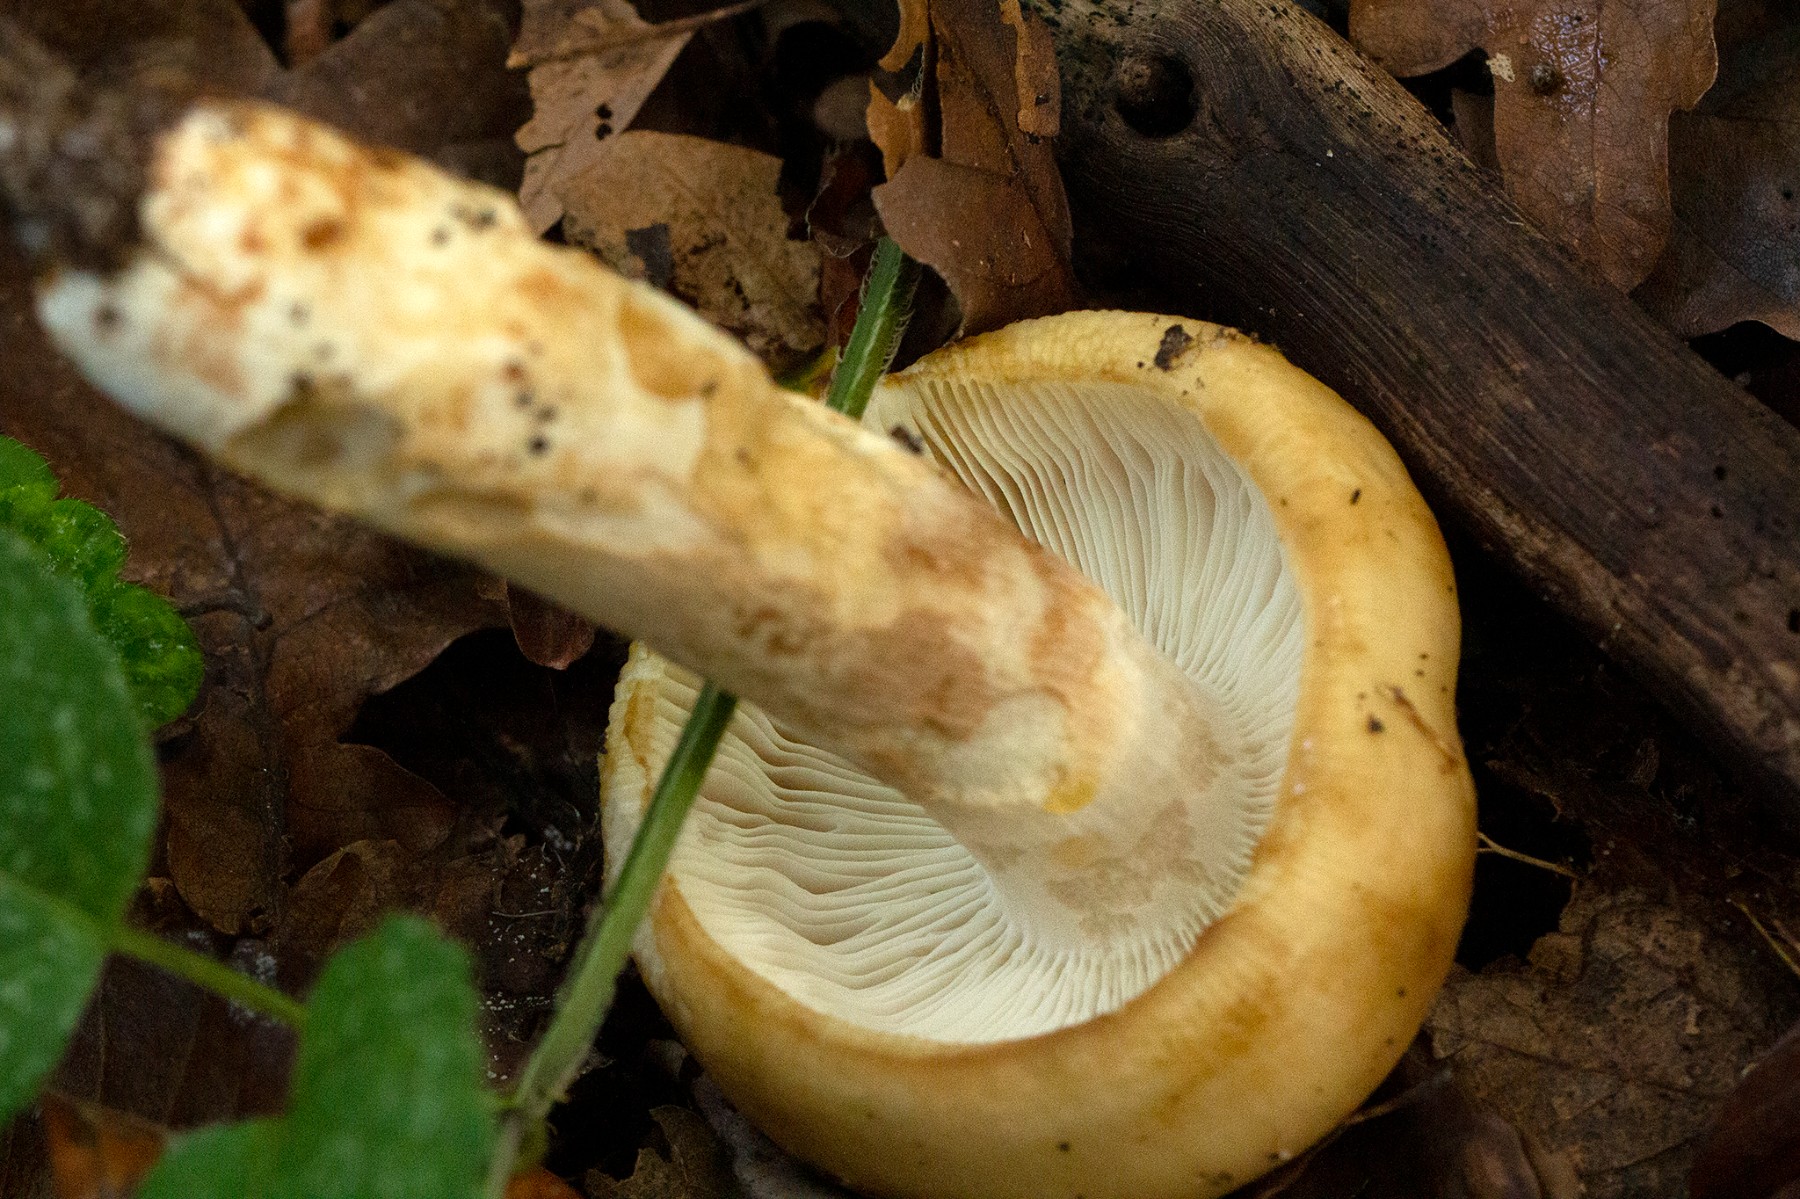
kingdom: Fungi
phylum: Basidiomycota
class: Agaricomycetes
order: Russulales
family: Russulaceae
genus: Russula
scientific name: Russula grata
